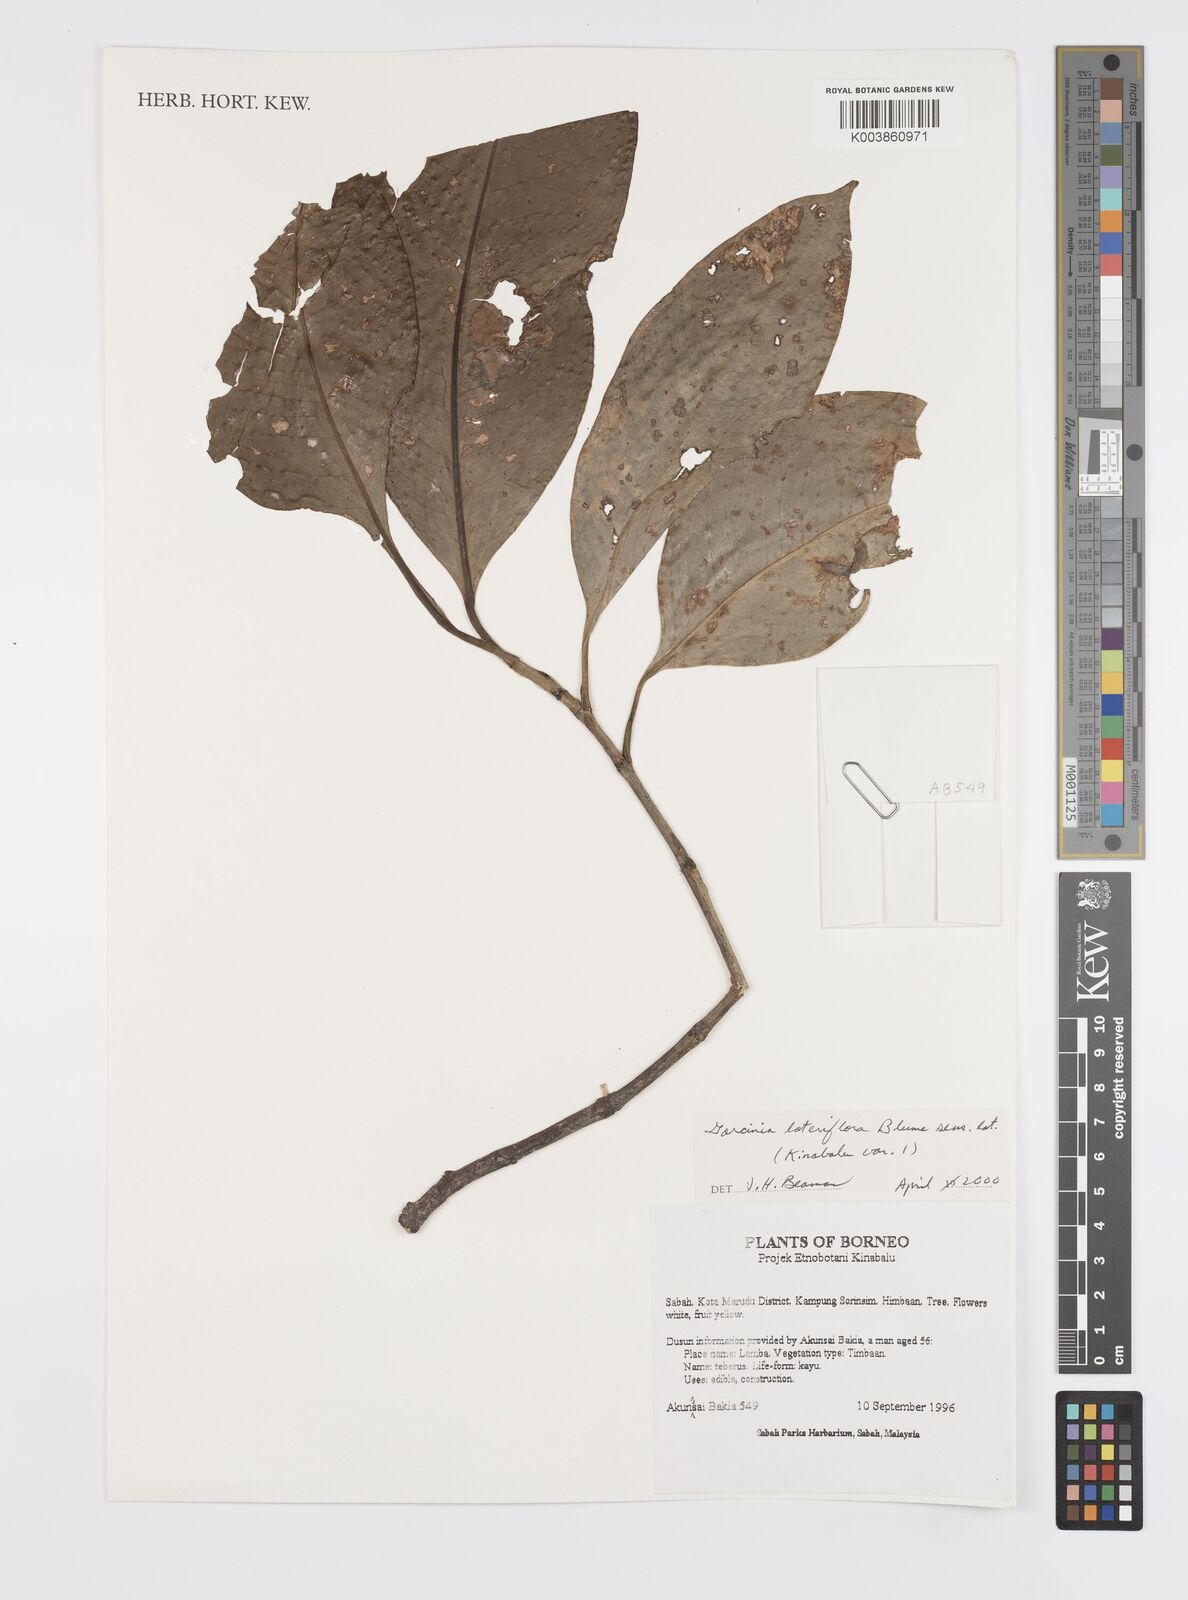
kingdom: Plantae
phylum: Tracheophyta
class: Magnoliopsida
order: Malpighiales
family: Clusiaceae
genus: Garcinia
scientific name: Garcinia lateriflora
